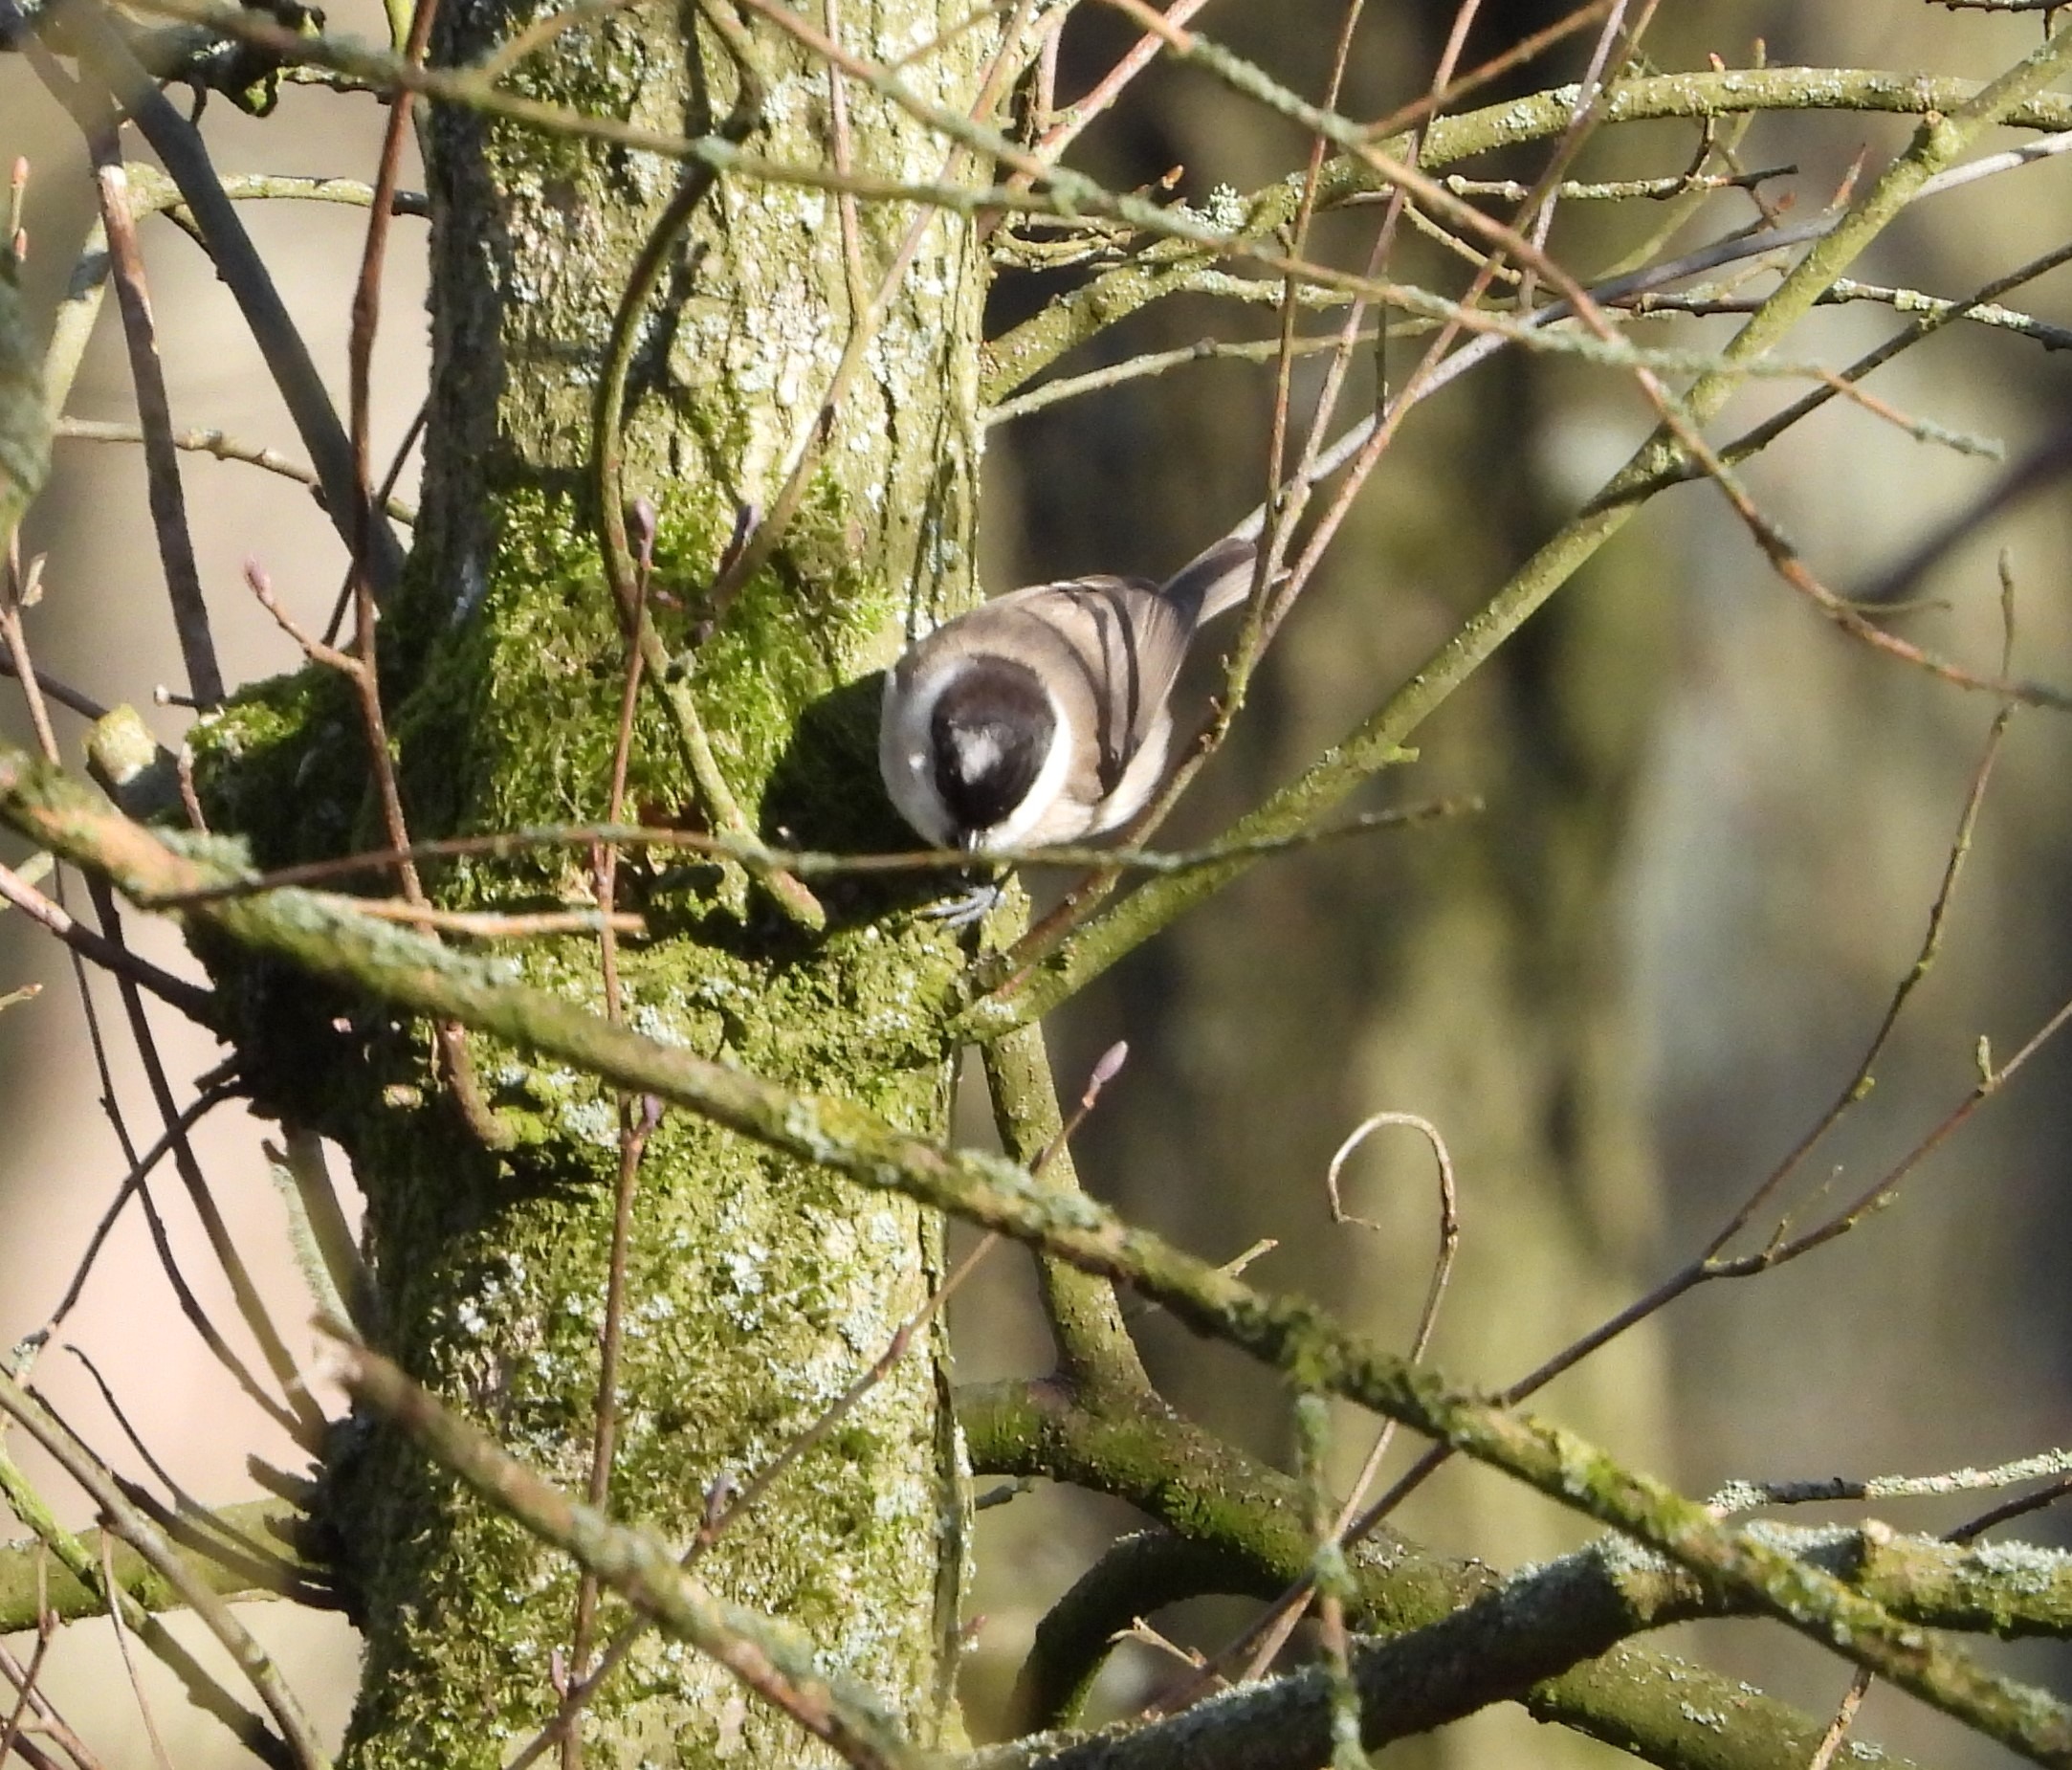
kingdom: Animalia
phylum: Chordata
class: Aves
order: Passeriformes
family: Paridae
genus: Poecile
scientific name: Poecile palustris
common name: Sumpmejse
